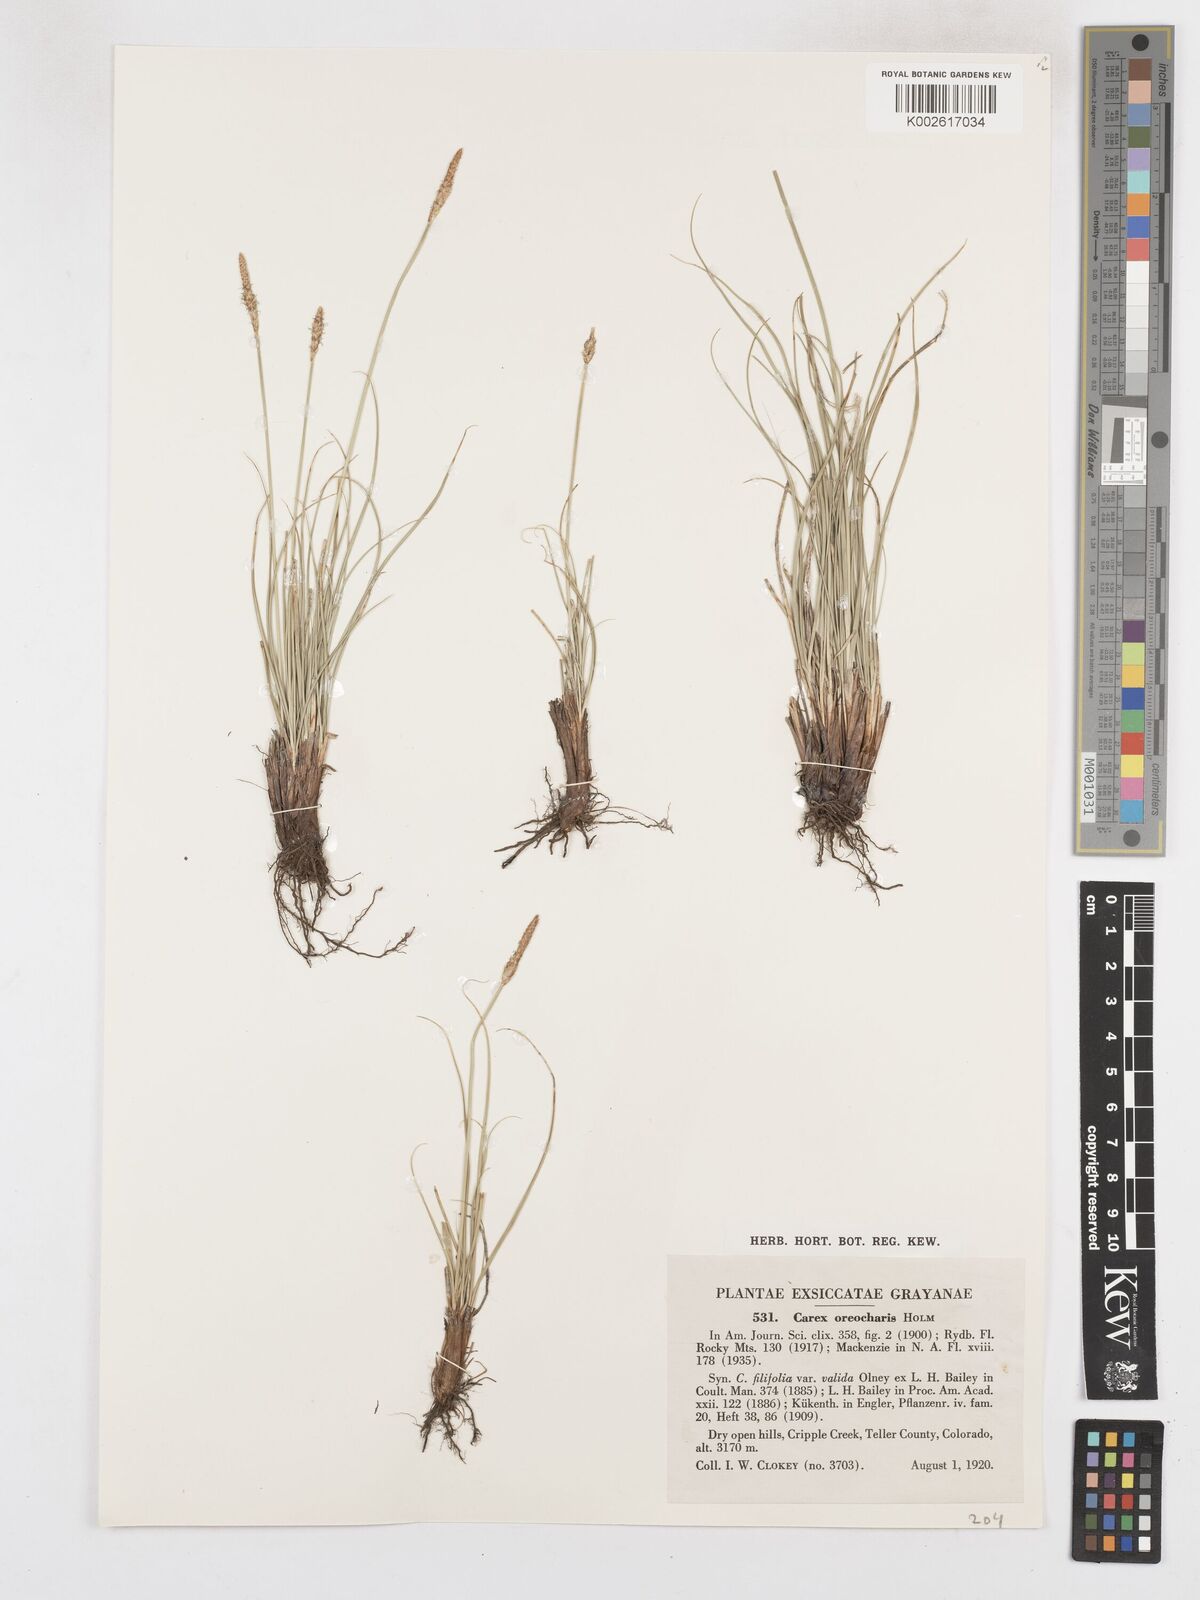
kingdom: Plantae
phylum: Tracheophyta
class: Liliopsida
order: Poales
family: Cyperaceae
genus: Carex
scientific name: Carex oreocharis
